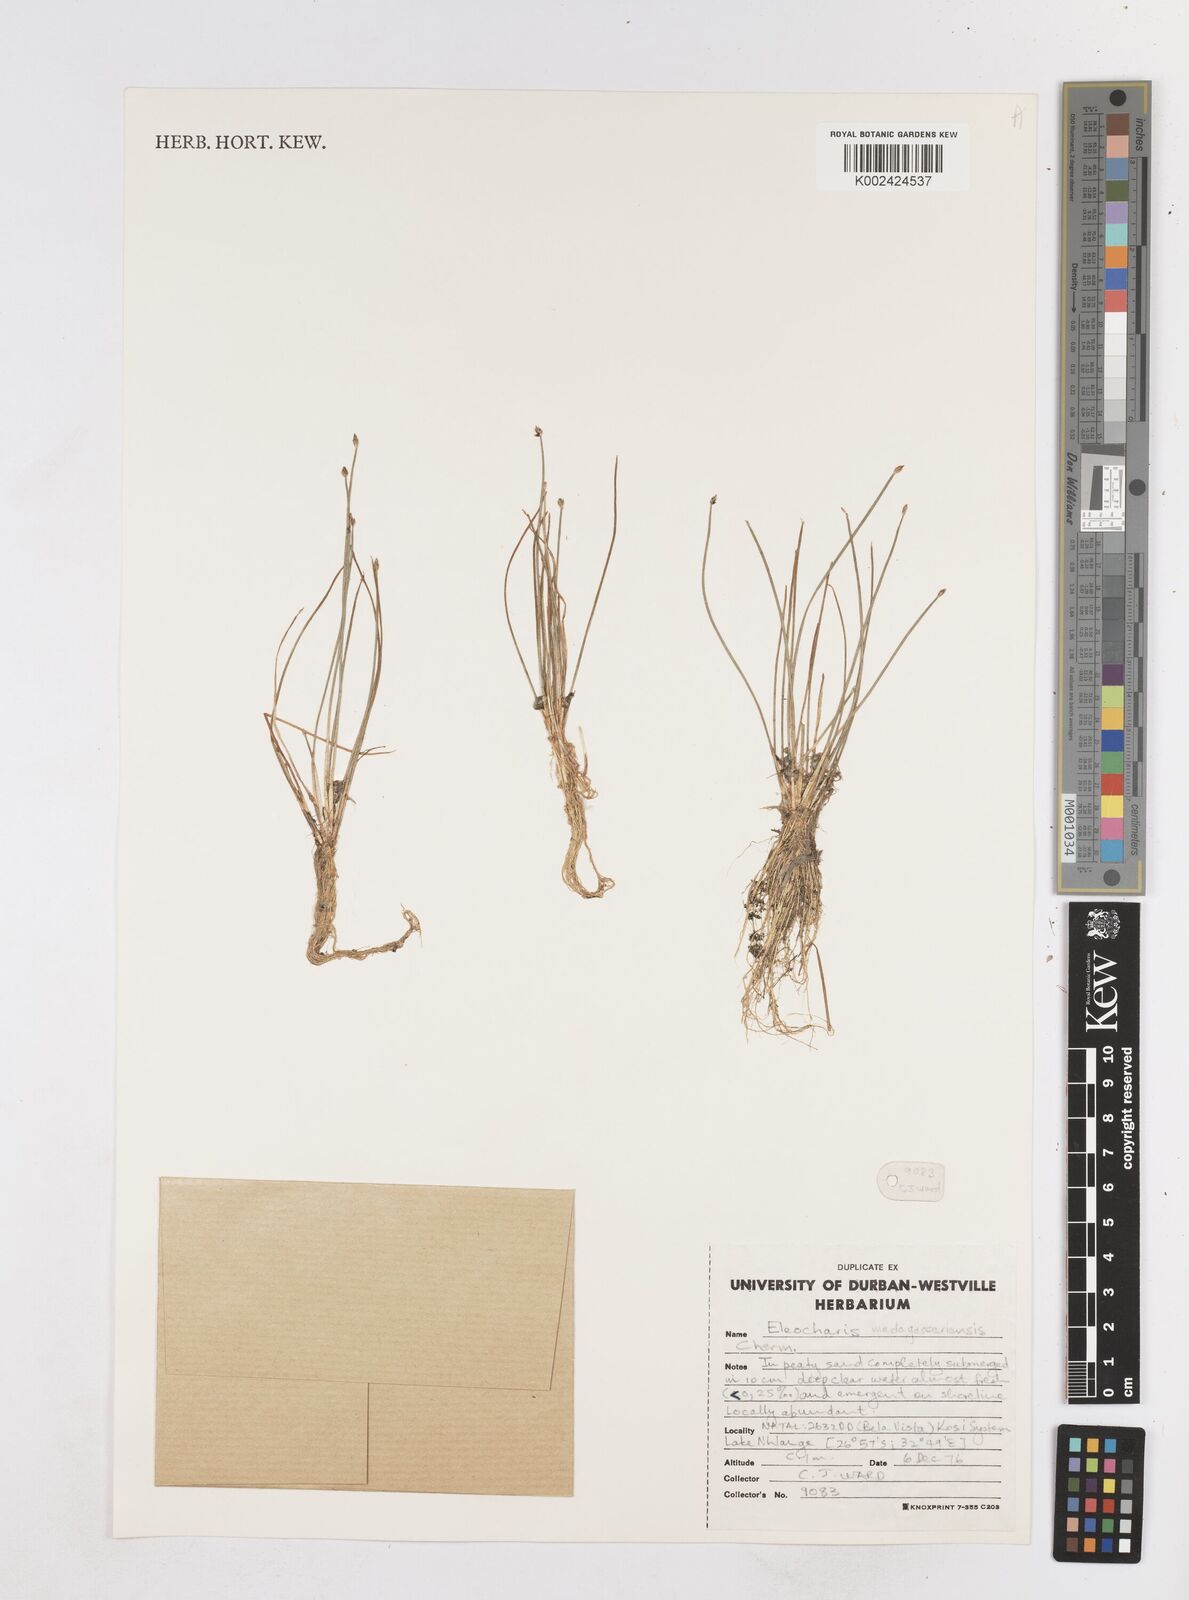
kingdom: Plantae
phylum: Tracheophyta
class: Liliopsida
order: Poales
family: Cyperaceae
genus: Eleocharis
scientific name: Eleocharis caduca
